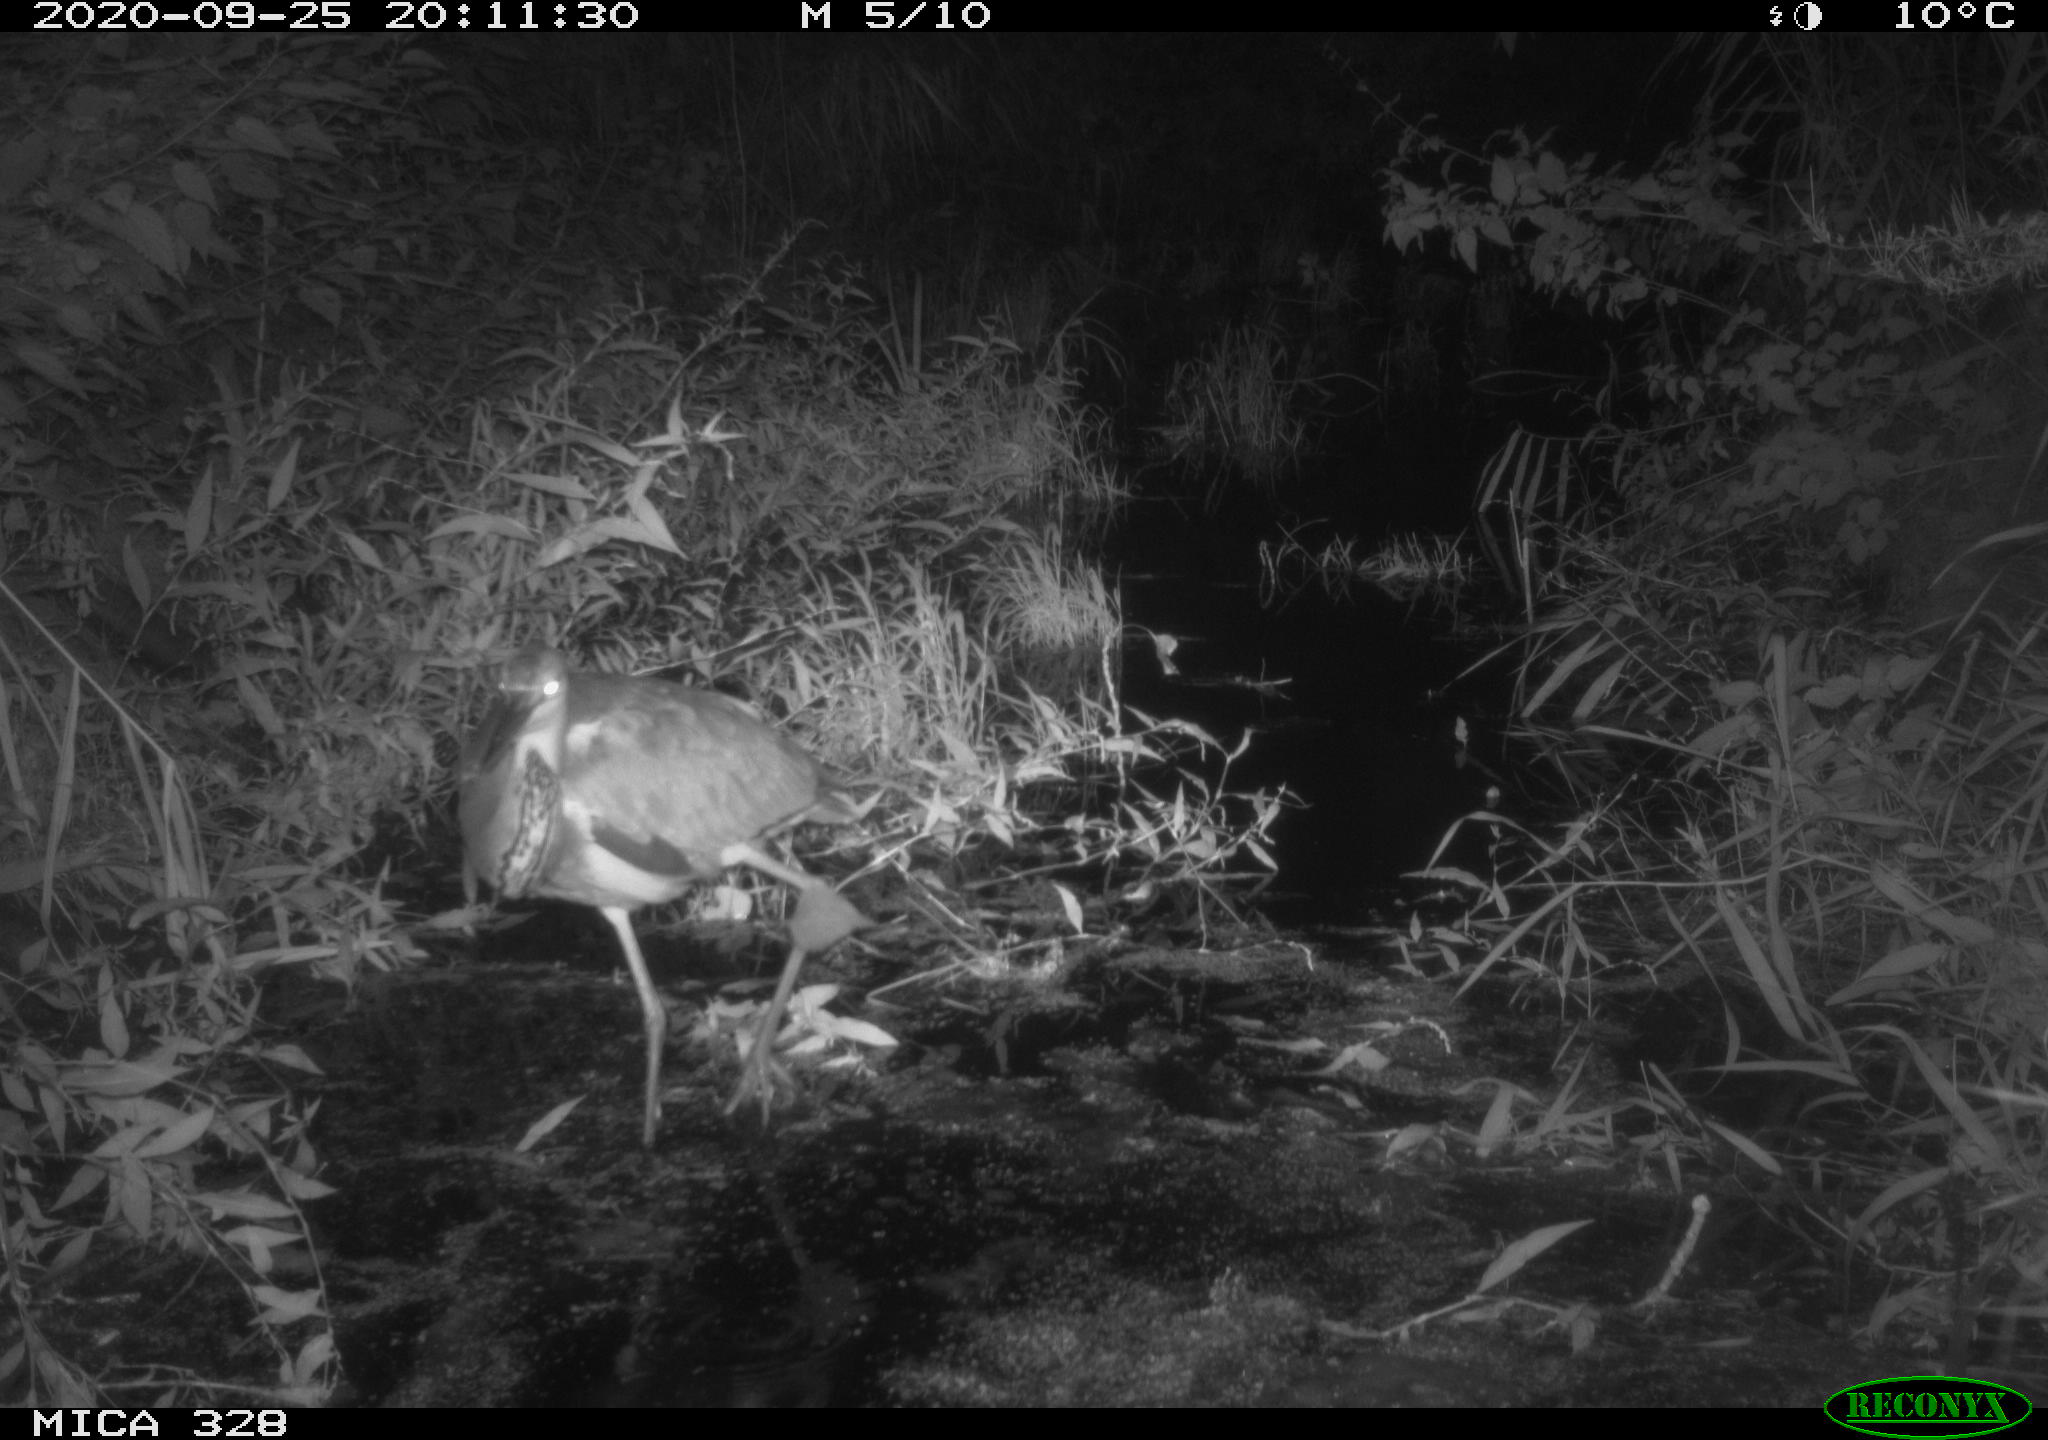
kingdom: Animalia
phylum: Chordata
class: Aves
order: Pelecaniformes
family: Ardeidae
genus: Ardea
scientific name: Ardea cinerea
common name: Grey heron
